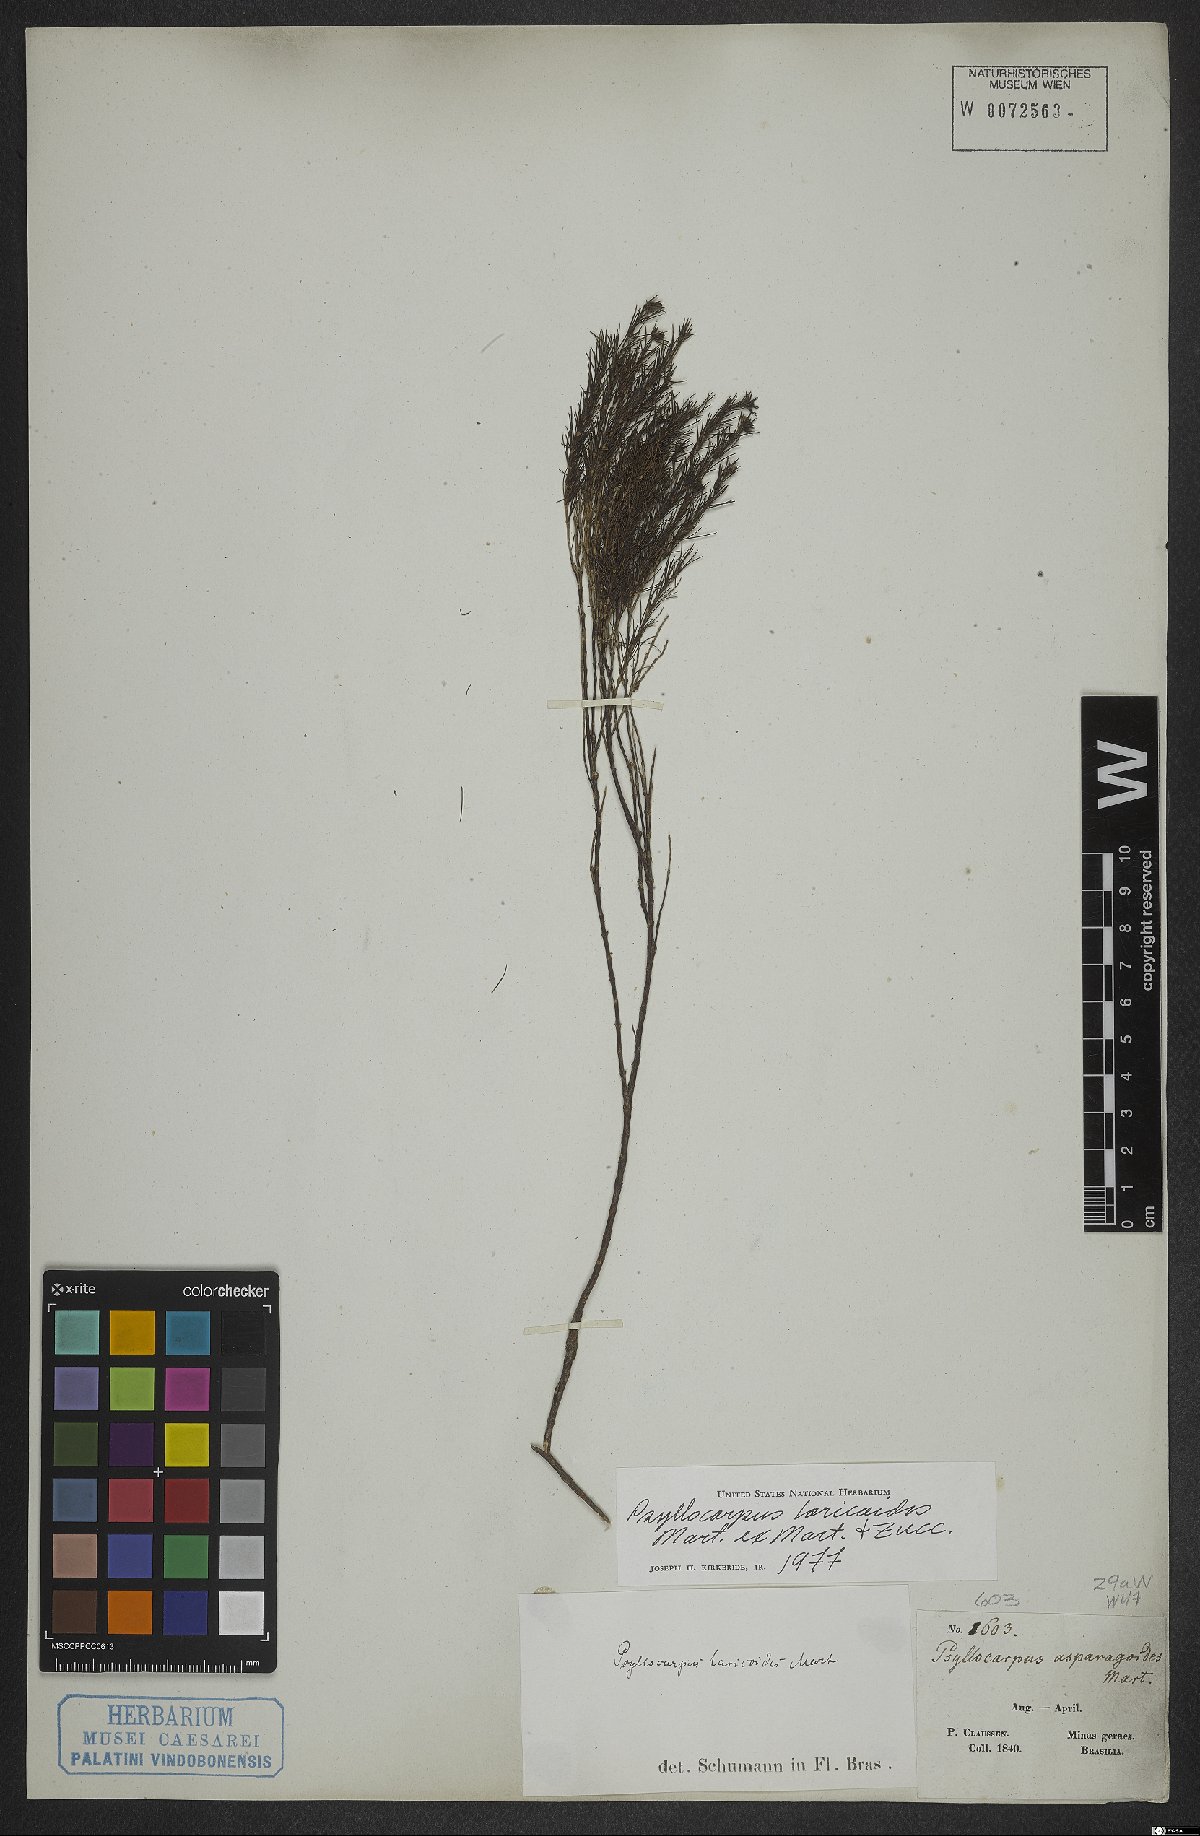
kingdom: Plantae
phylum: Tracheophyta
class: Magnoliopsida
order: Gentianales
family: Rubiaceae
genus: Psyllocarpus
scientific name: Psyllocarpus laricoides
